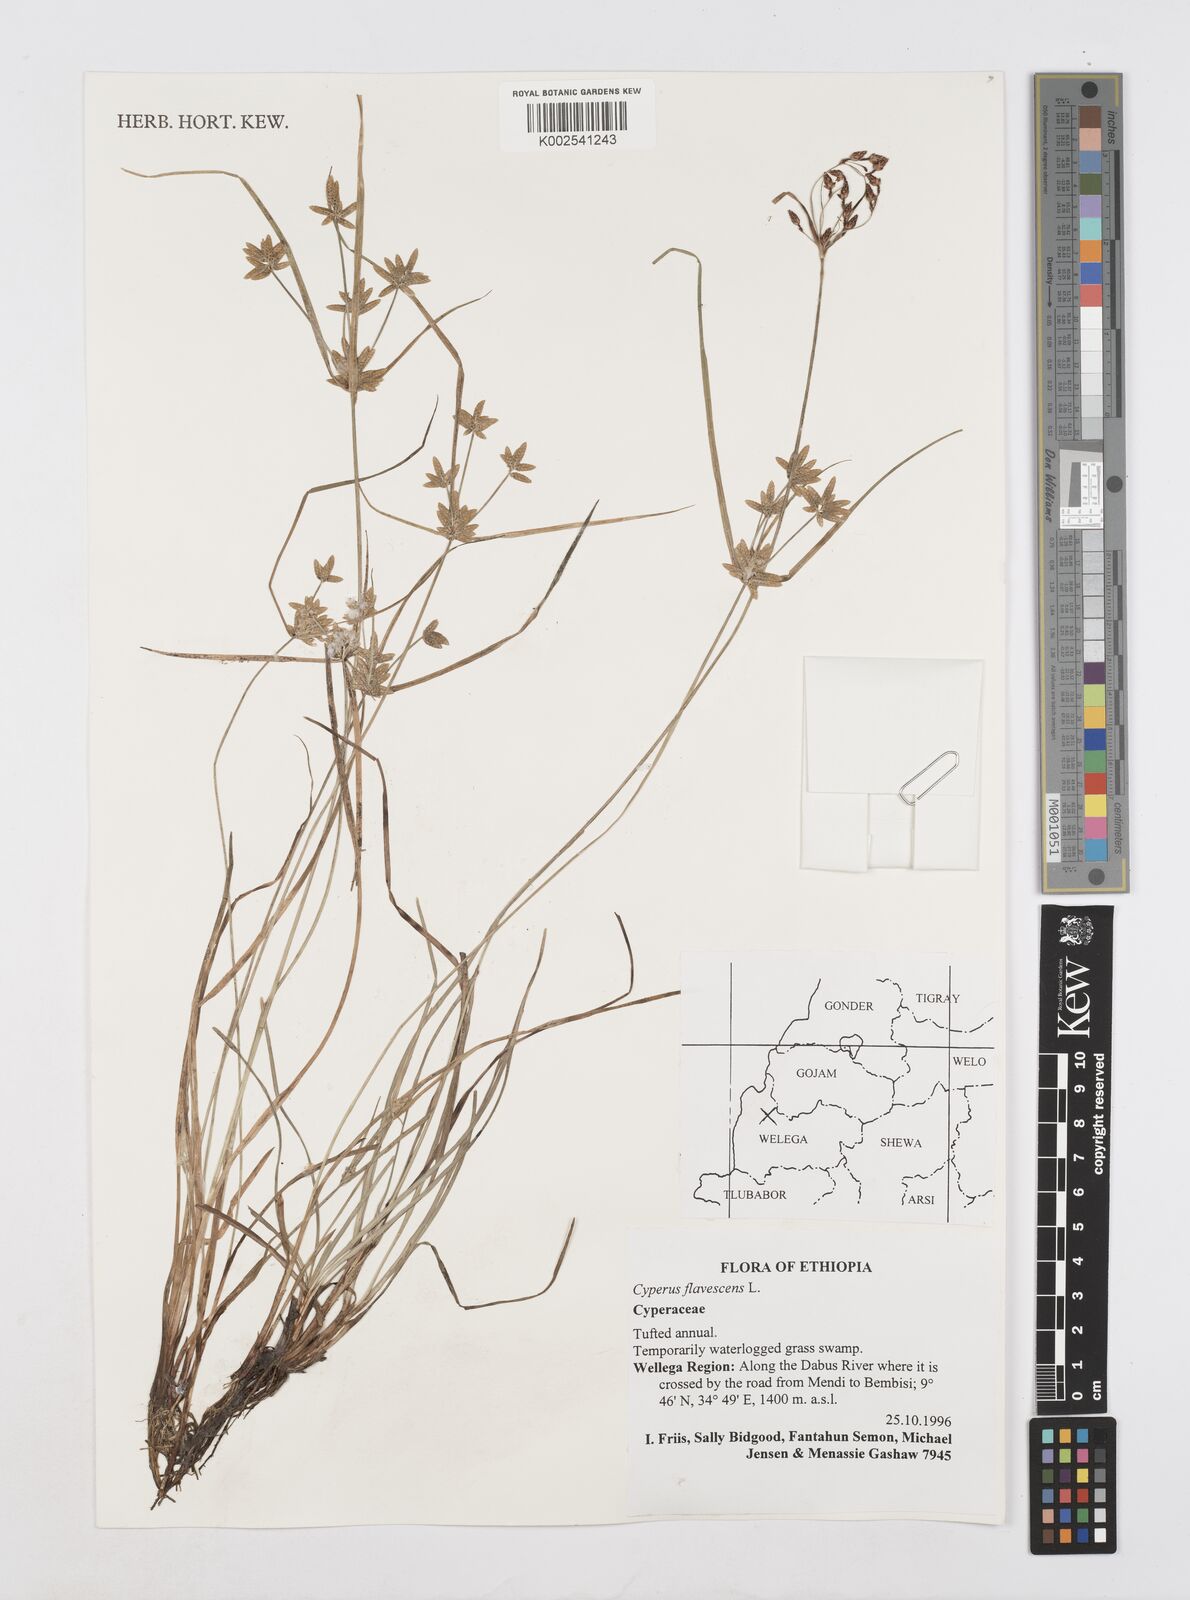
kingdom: Plantae
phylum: Tracheophyta
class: Liliopsida
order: Poales
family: Cyperaceae
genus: Cyperus
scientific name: Cyperus flavescens
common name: Yellow galingale
